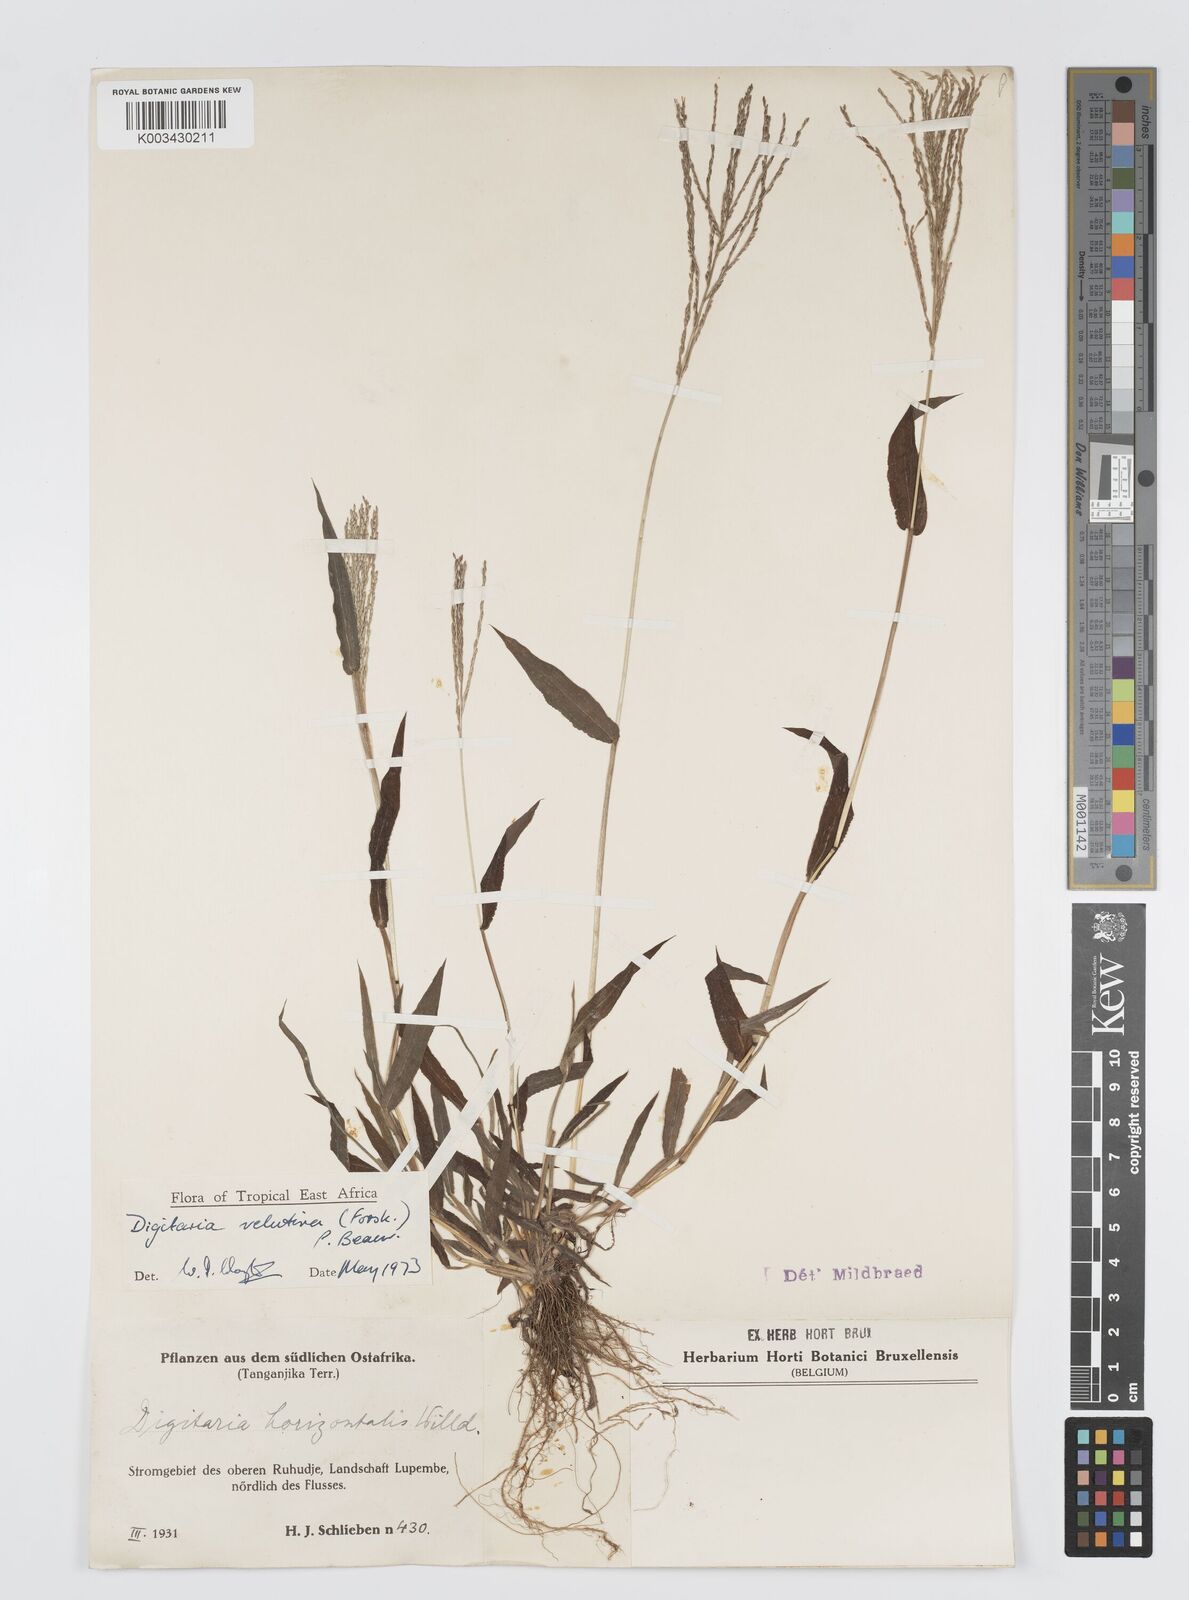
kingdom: Plantae
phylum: Tracheophyta
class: Liliopsida
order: Poales
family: Poaceae
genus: Digitaria
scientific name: Digitaria velutina
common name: Long-plume finger grass
